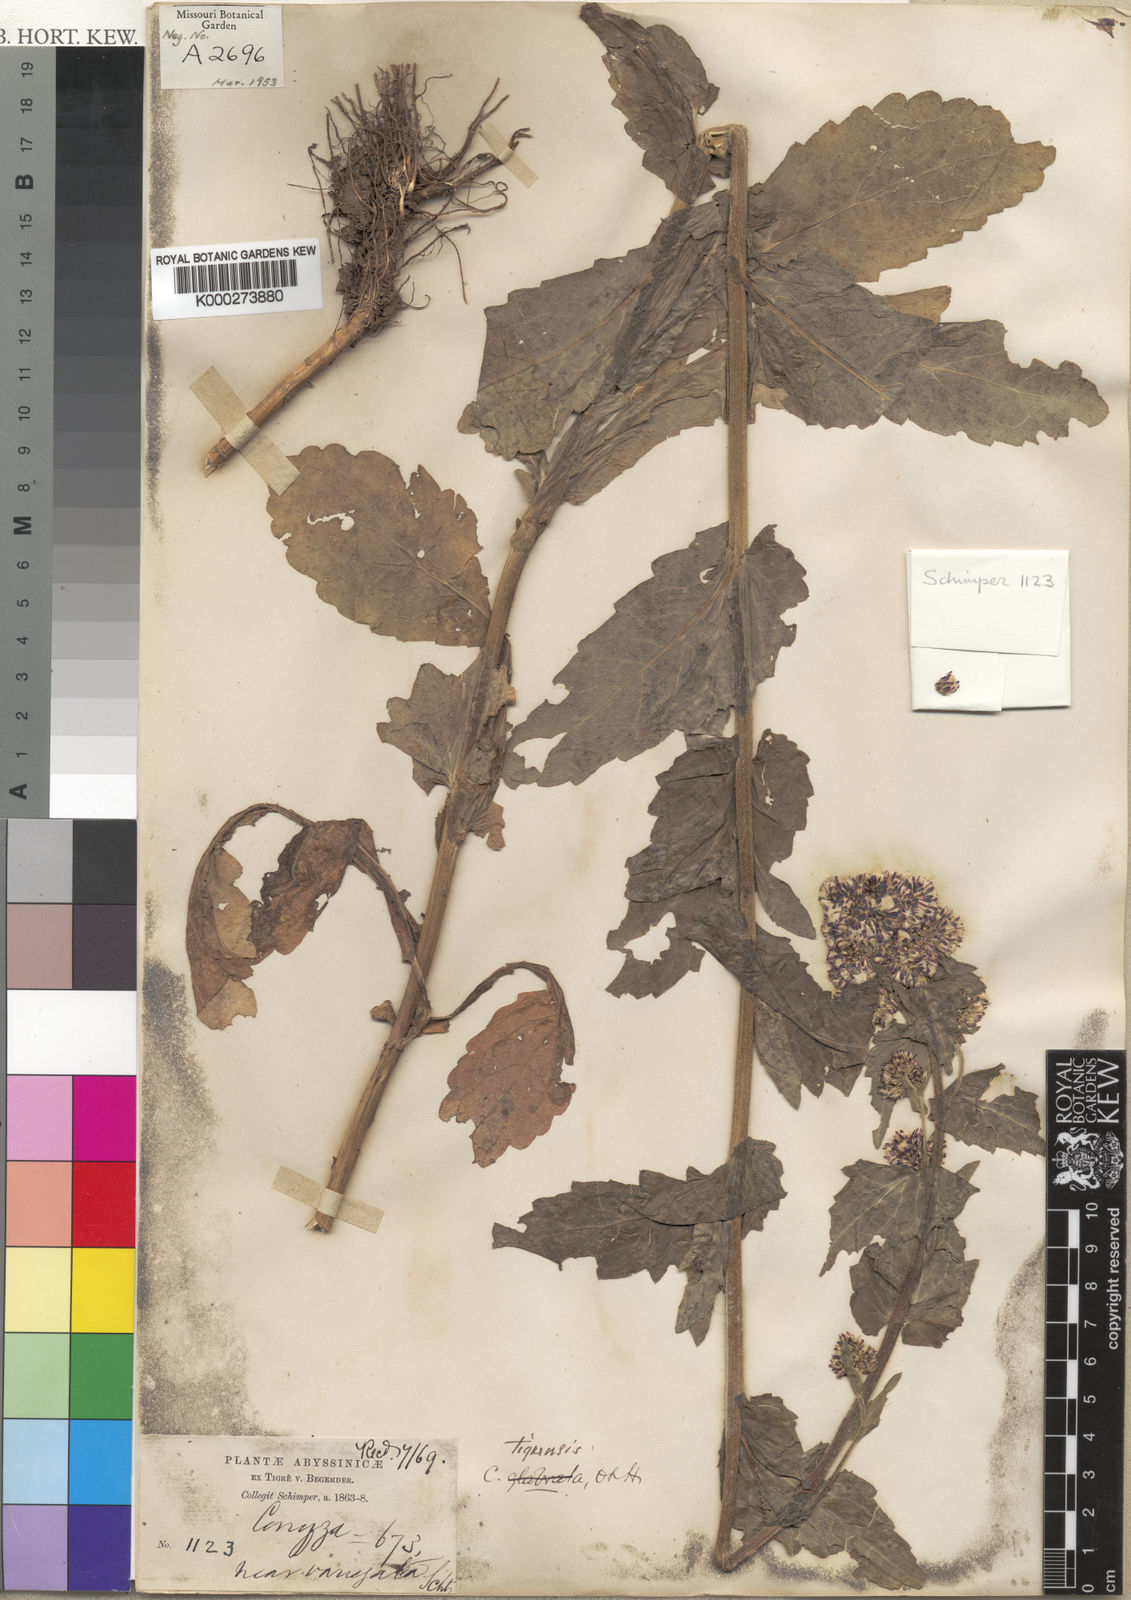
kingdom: Plantae
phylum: Tracheophyta
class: Magnoliopsida
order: Asterales
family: Asteraceae
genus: Eschenbachia
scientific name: Eschenbachia tigrensis
